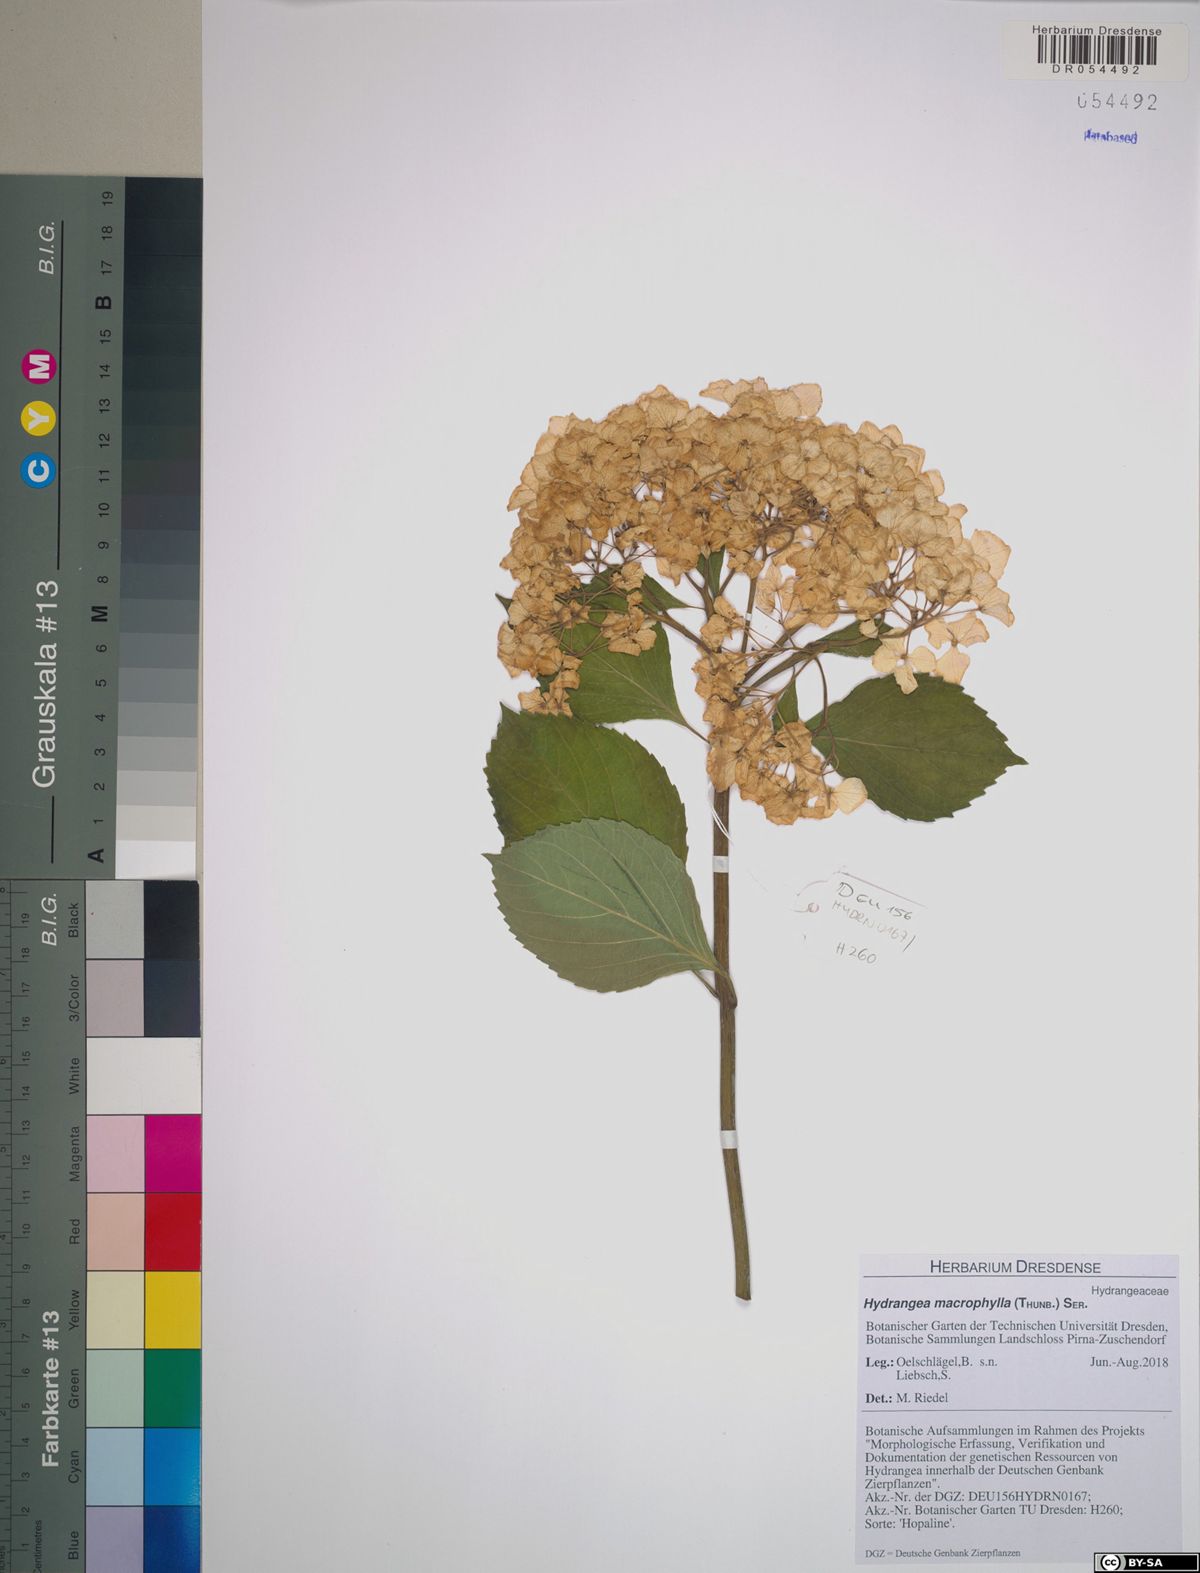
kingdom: Plantae
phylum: Tracheophyta
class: Magnoliopsida
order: Cornales
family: Hydrangeaceae
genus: Hydrangea
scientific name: Hydrangea macrophylla
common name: Hydrangea
